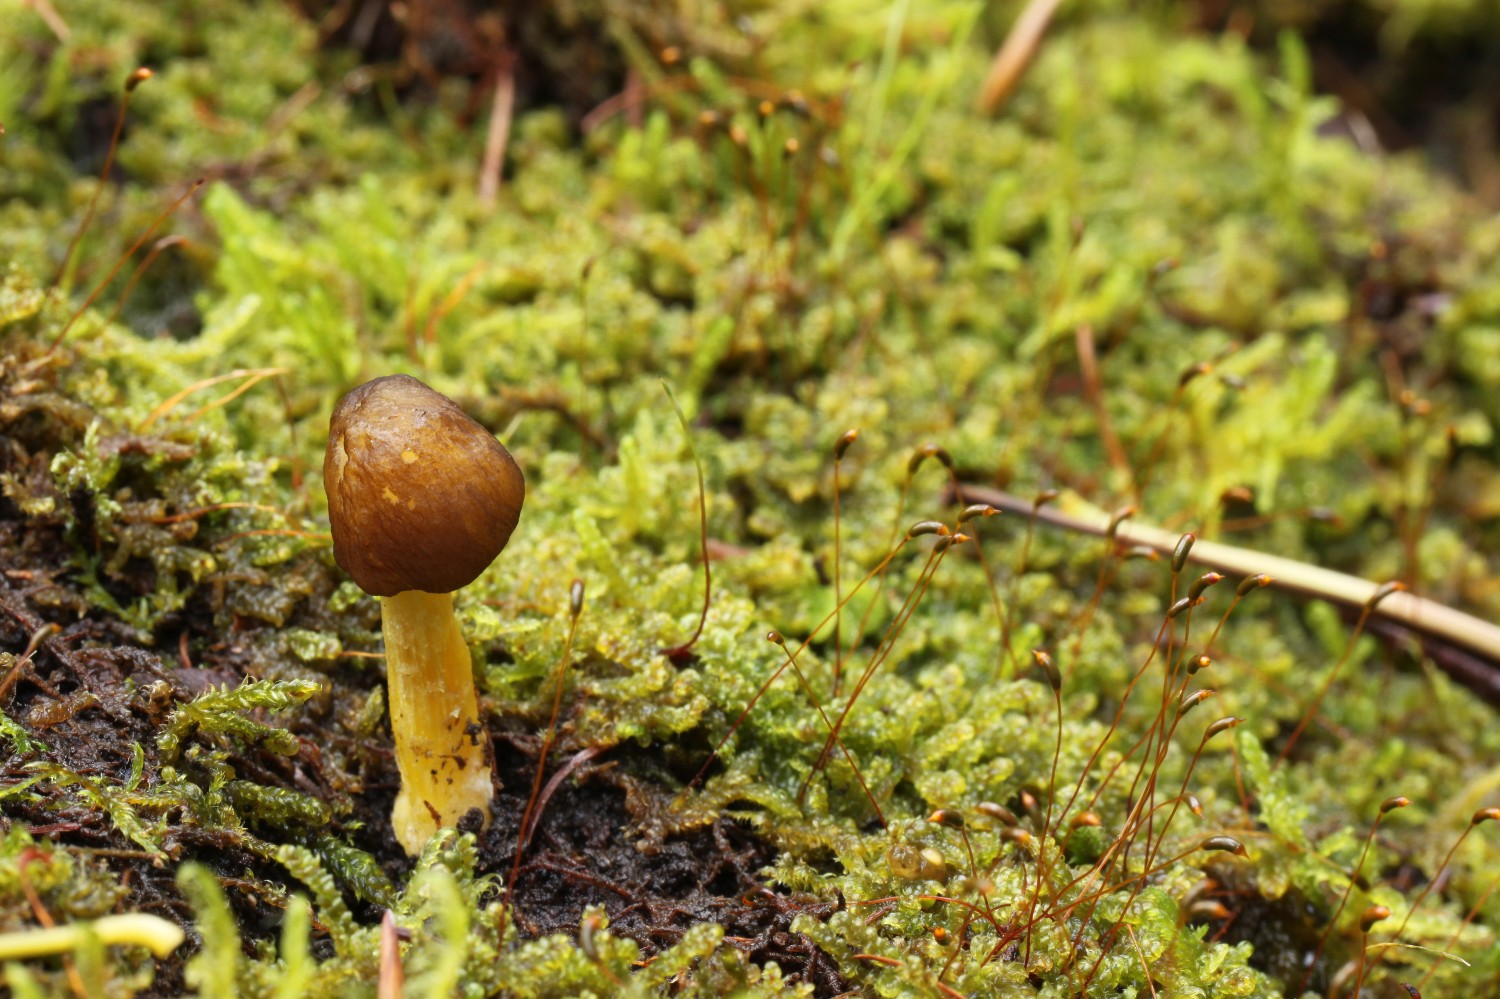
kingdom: Fungi
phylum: Basidiomycota
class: Agaricomycetes
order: Agaricales
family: Pluteaceae
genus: Pluteus
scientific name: Pluteus romellii
